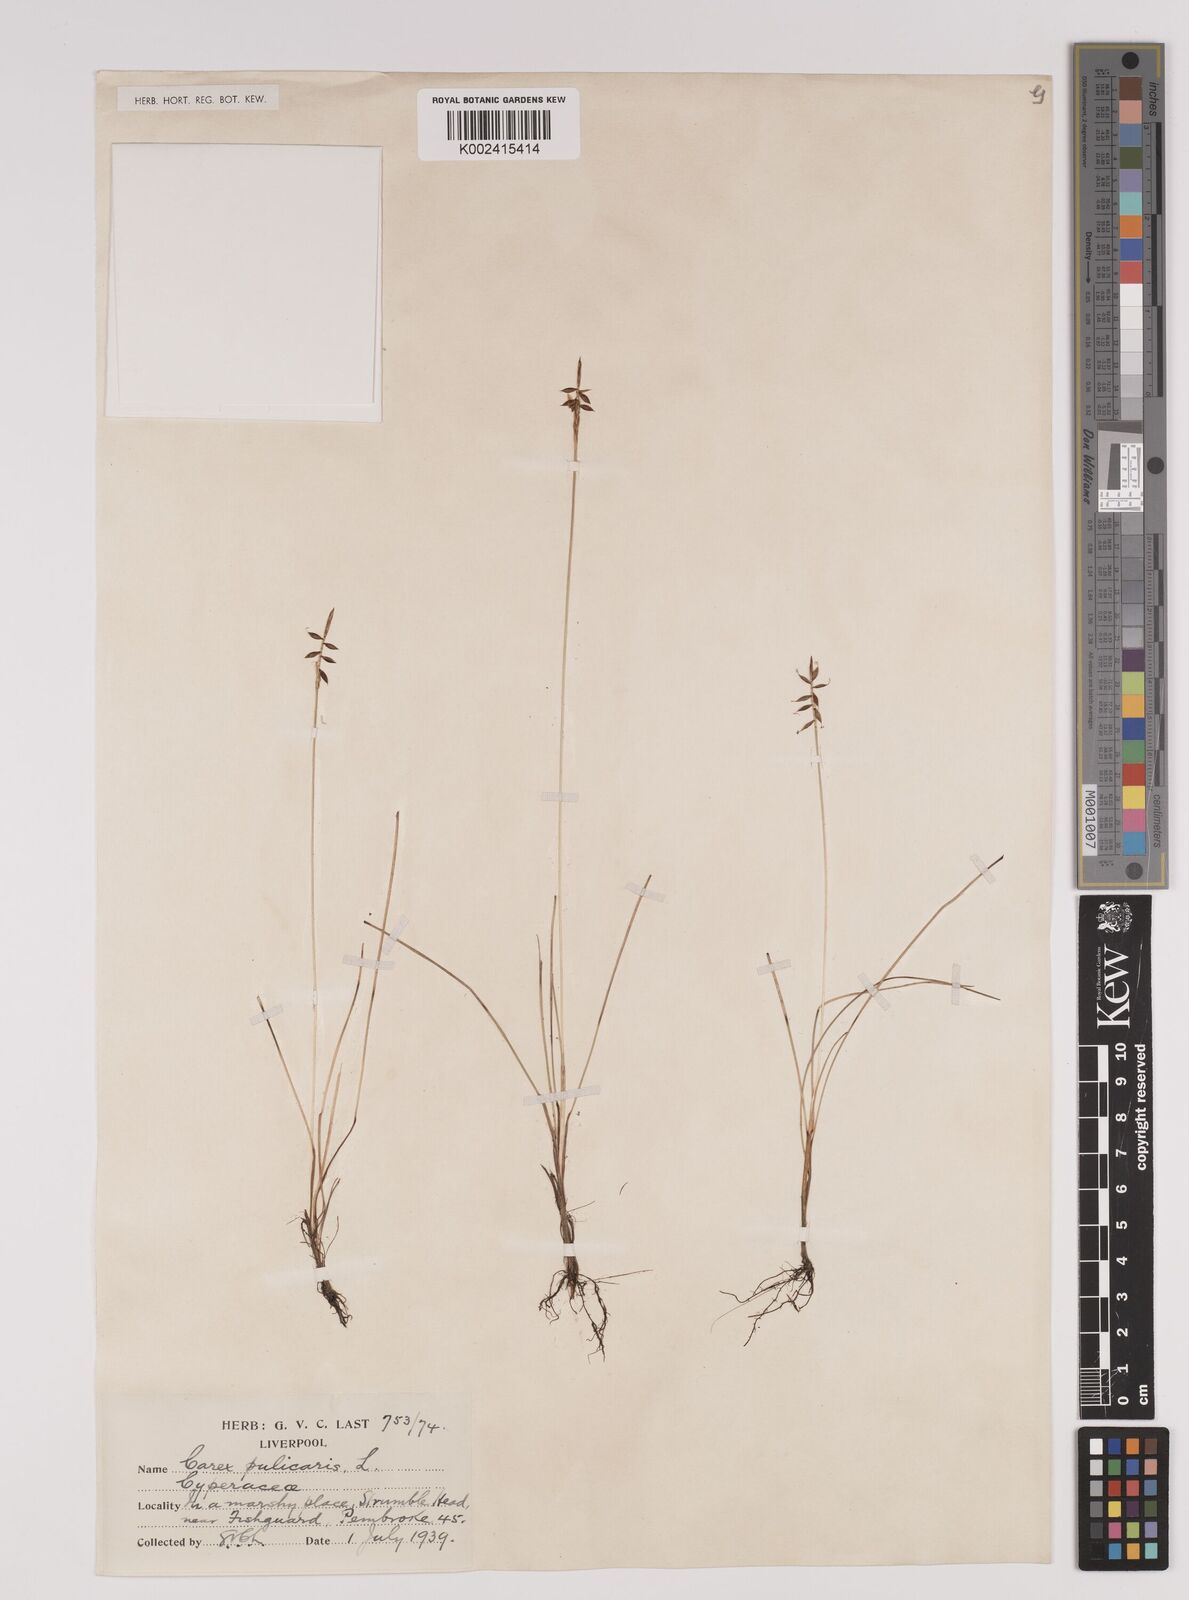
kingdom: Plantae
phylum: Tracheophyta
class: Liliopsida
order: Poales
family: Cyperaceae
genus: Carex
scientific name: Carex pulicaris
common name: Flea sedge
